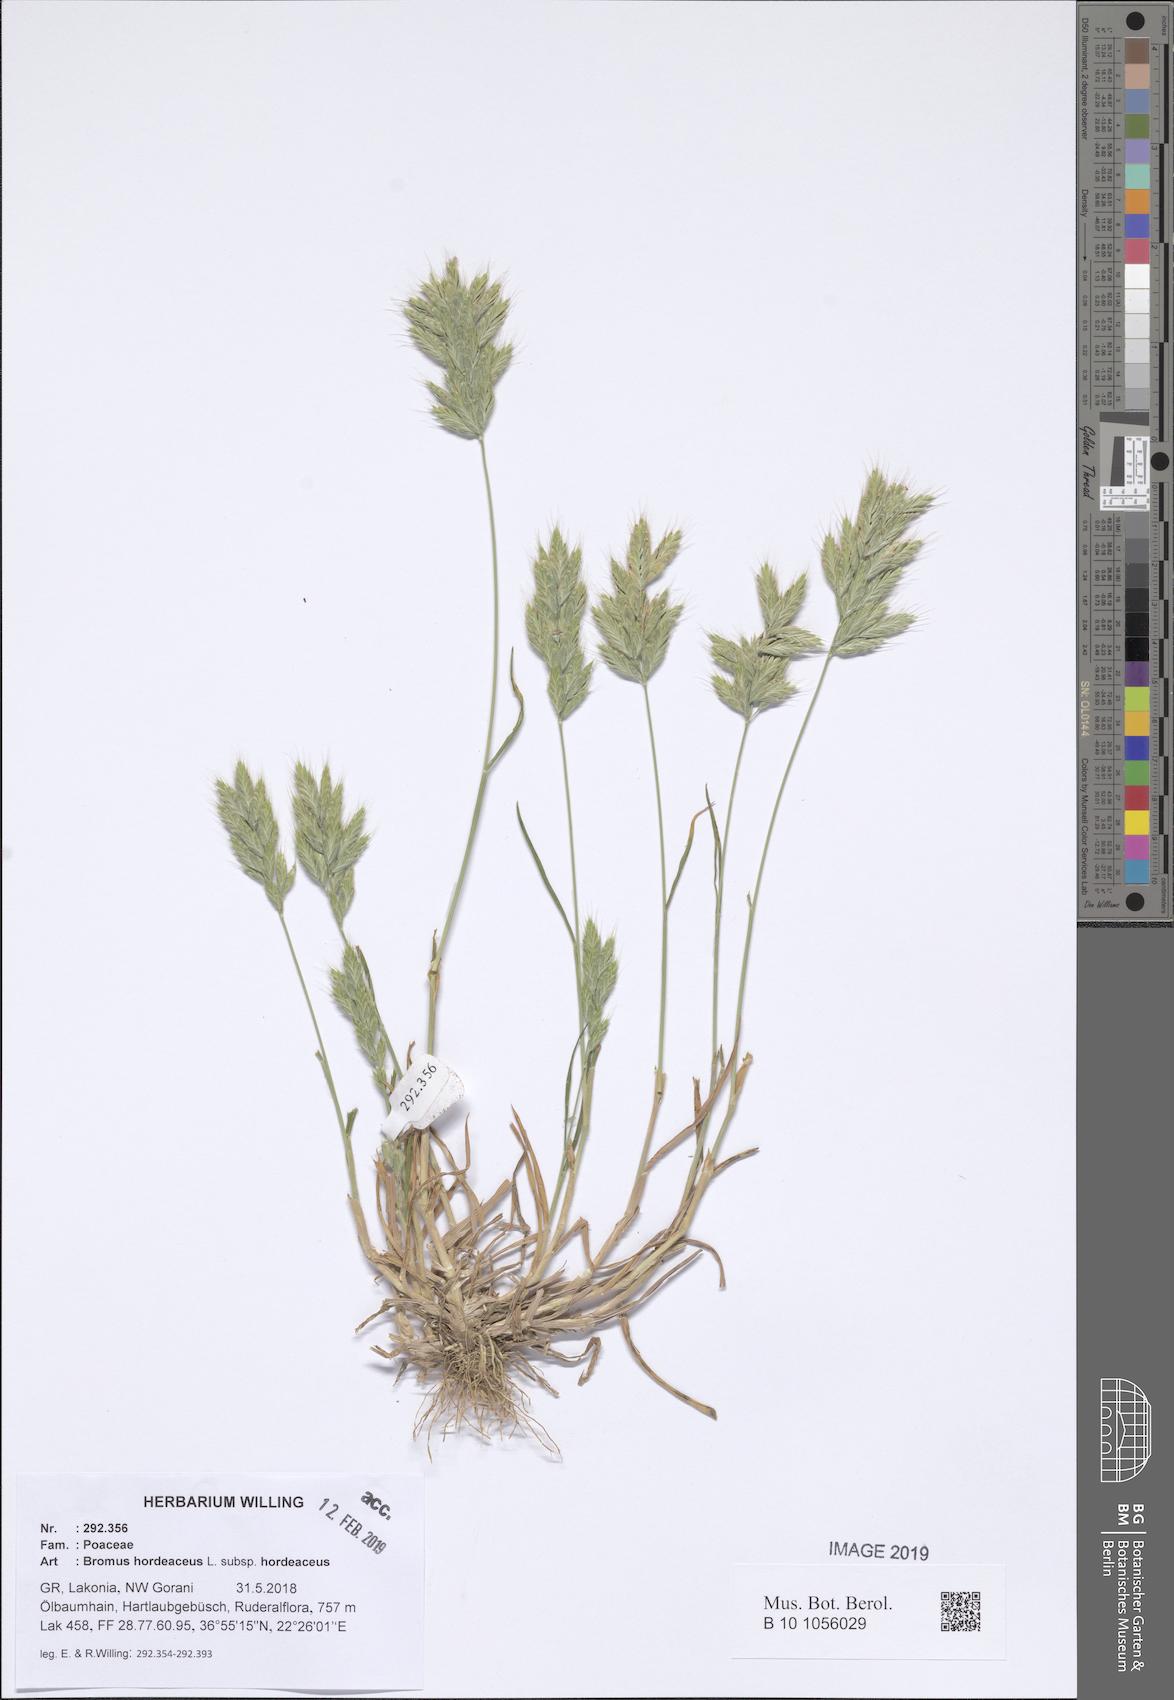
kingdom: Plantae
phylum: Tracheophyta
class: Liliopsida
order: Poales
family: Poaceae
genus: Bromus
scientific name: Bromus hordeaceus
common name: Soft brome
